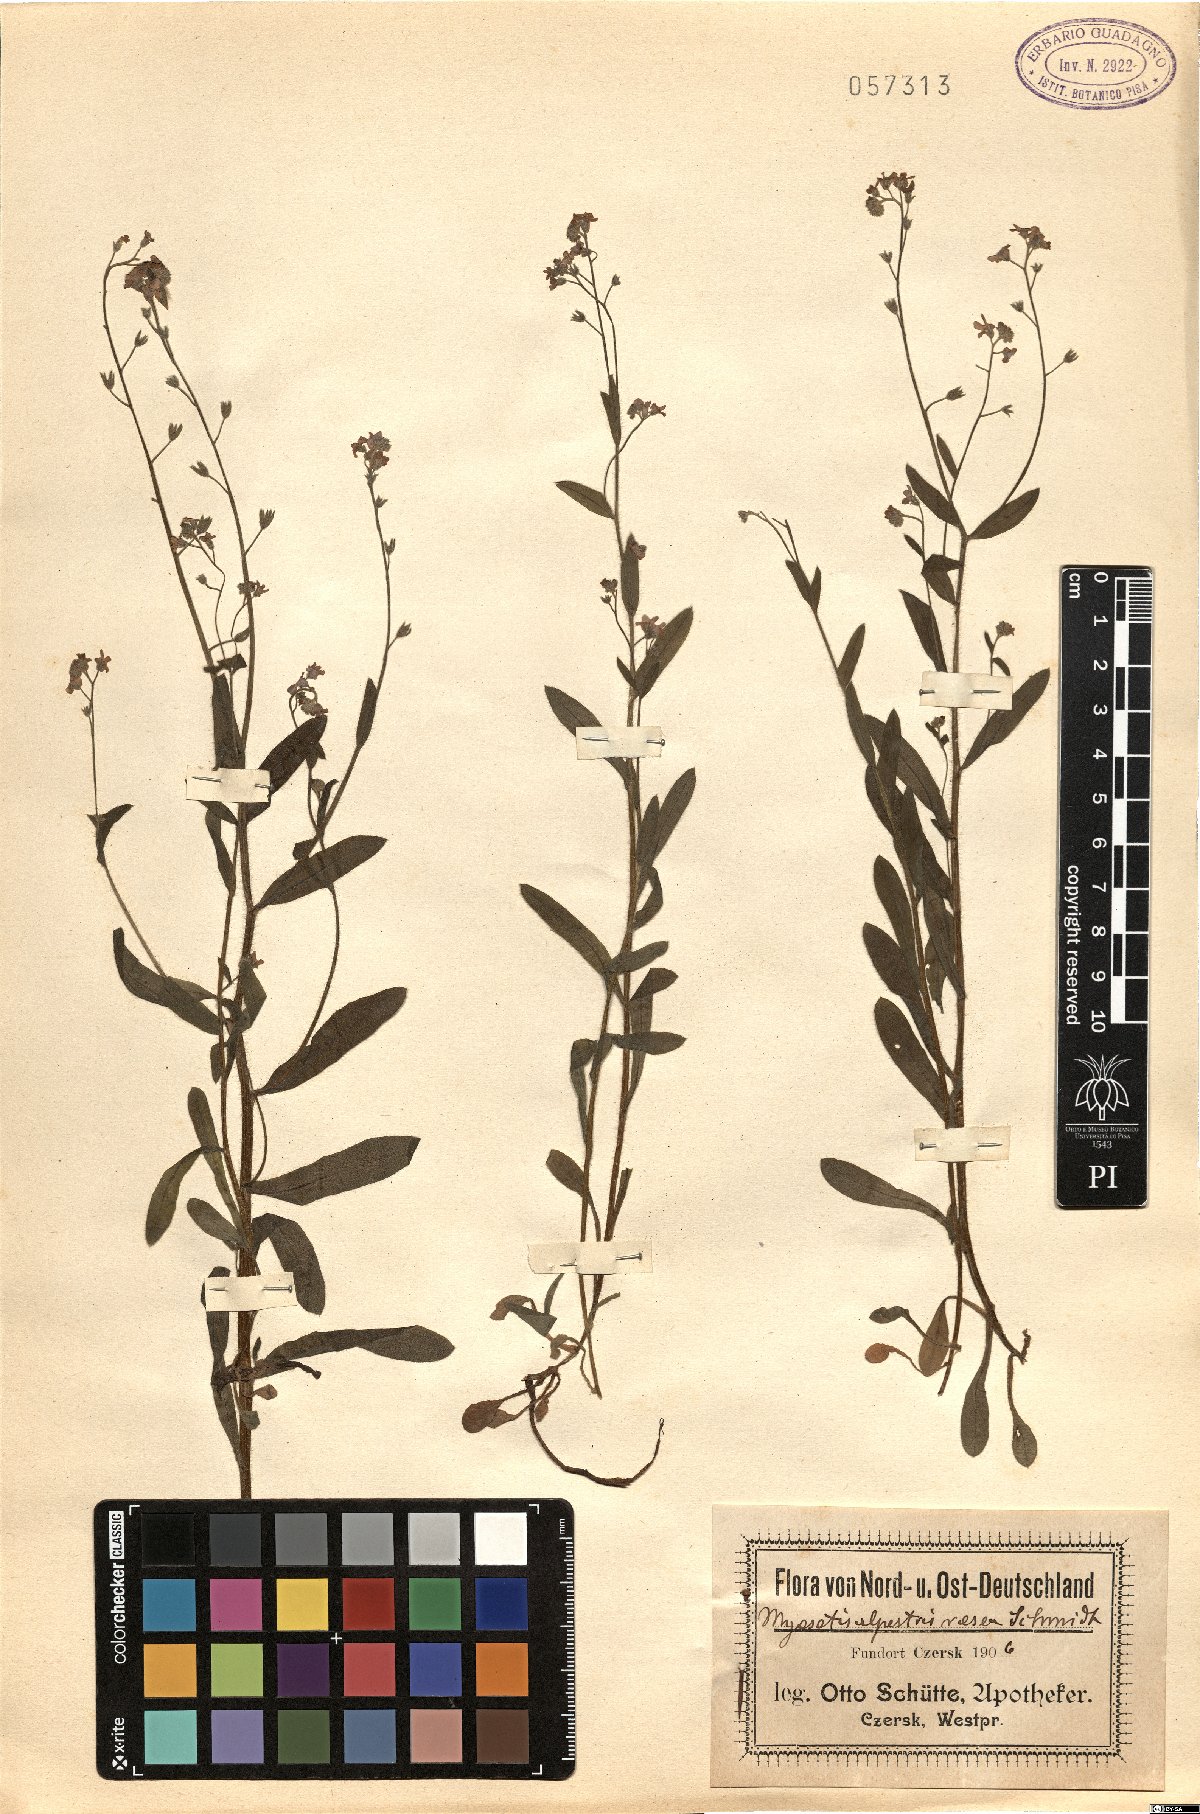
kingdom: Plantae
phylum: Tracheophyta
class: Magnoliopsida
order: Boraginales
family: Boraginaceae
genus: Myosotis
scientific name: Myosotis alpestris
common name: Alpine forget-me-not
